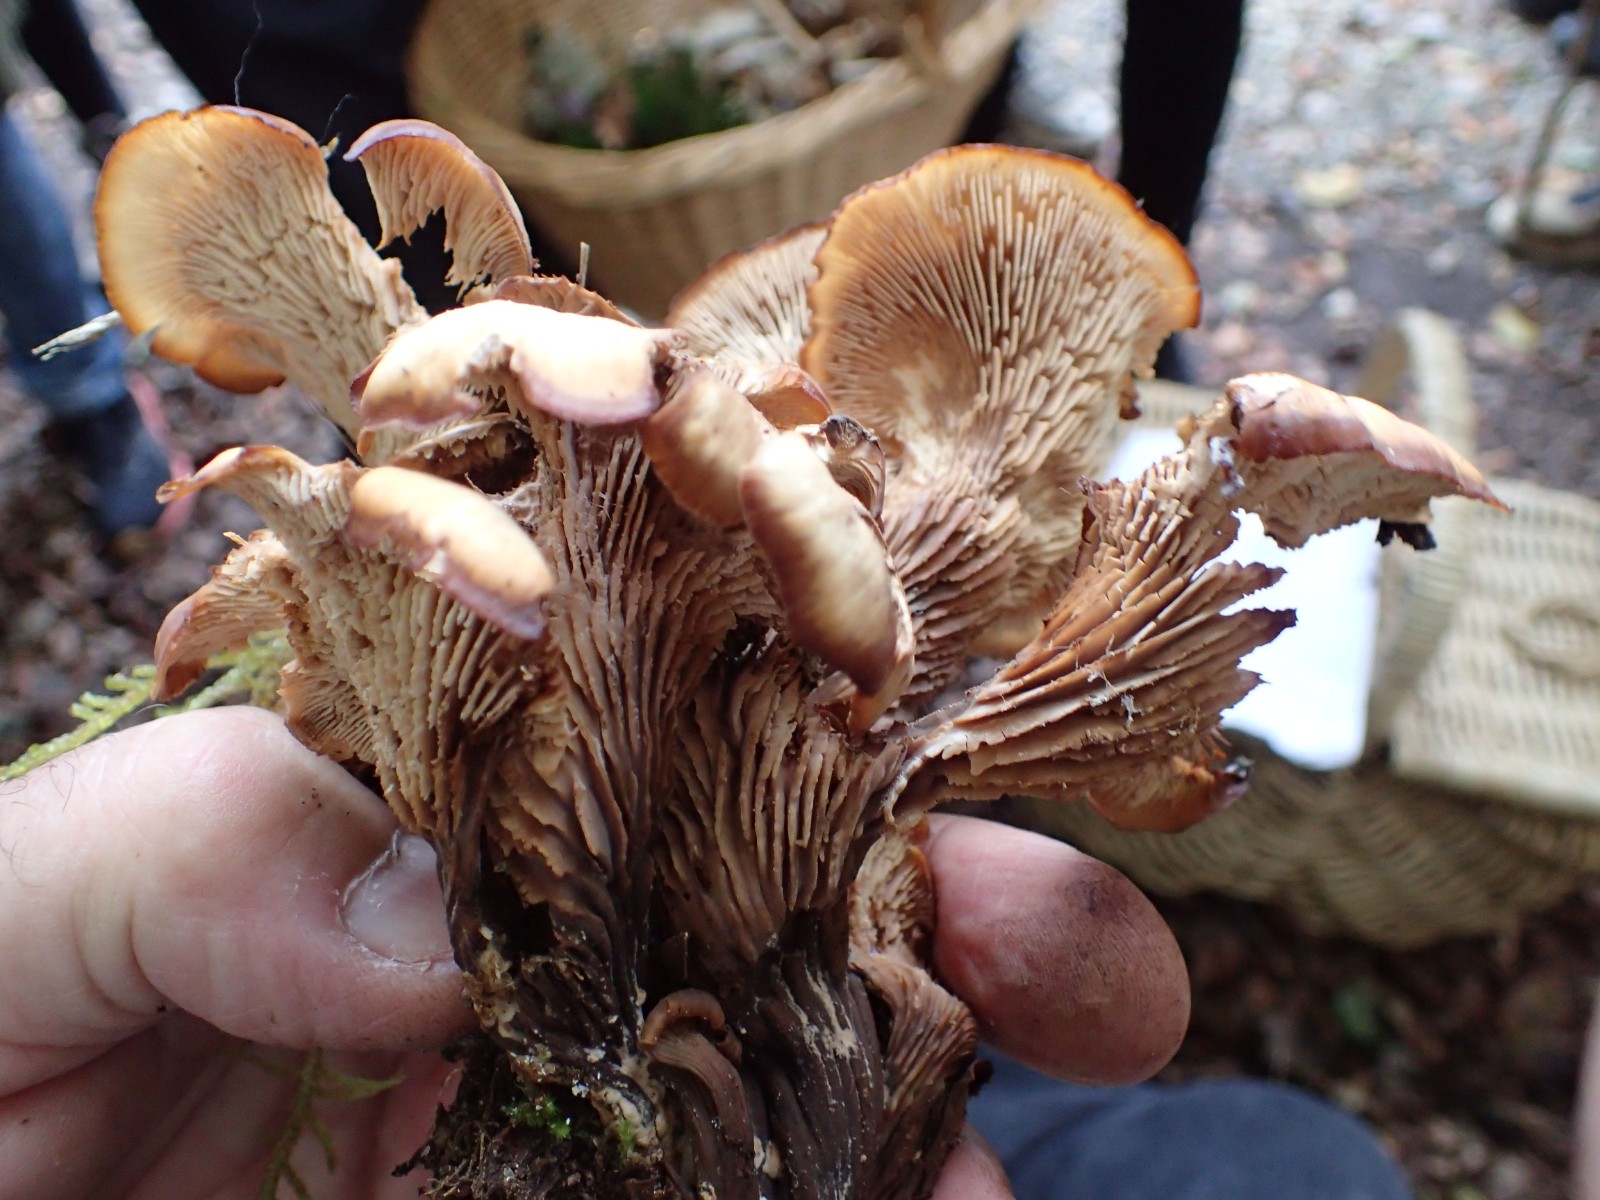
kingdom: Fungi
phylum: Basidiomycota
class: Agaricomycetes
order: Russulales
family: Auriscalpiaceae
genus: Lentinellus
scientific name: Lentinellus cochleatus
